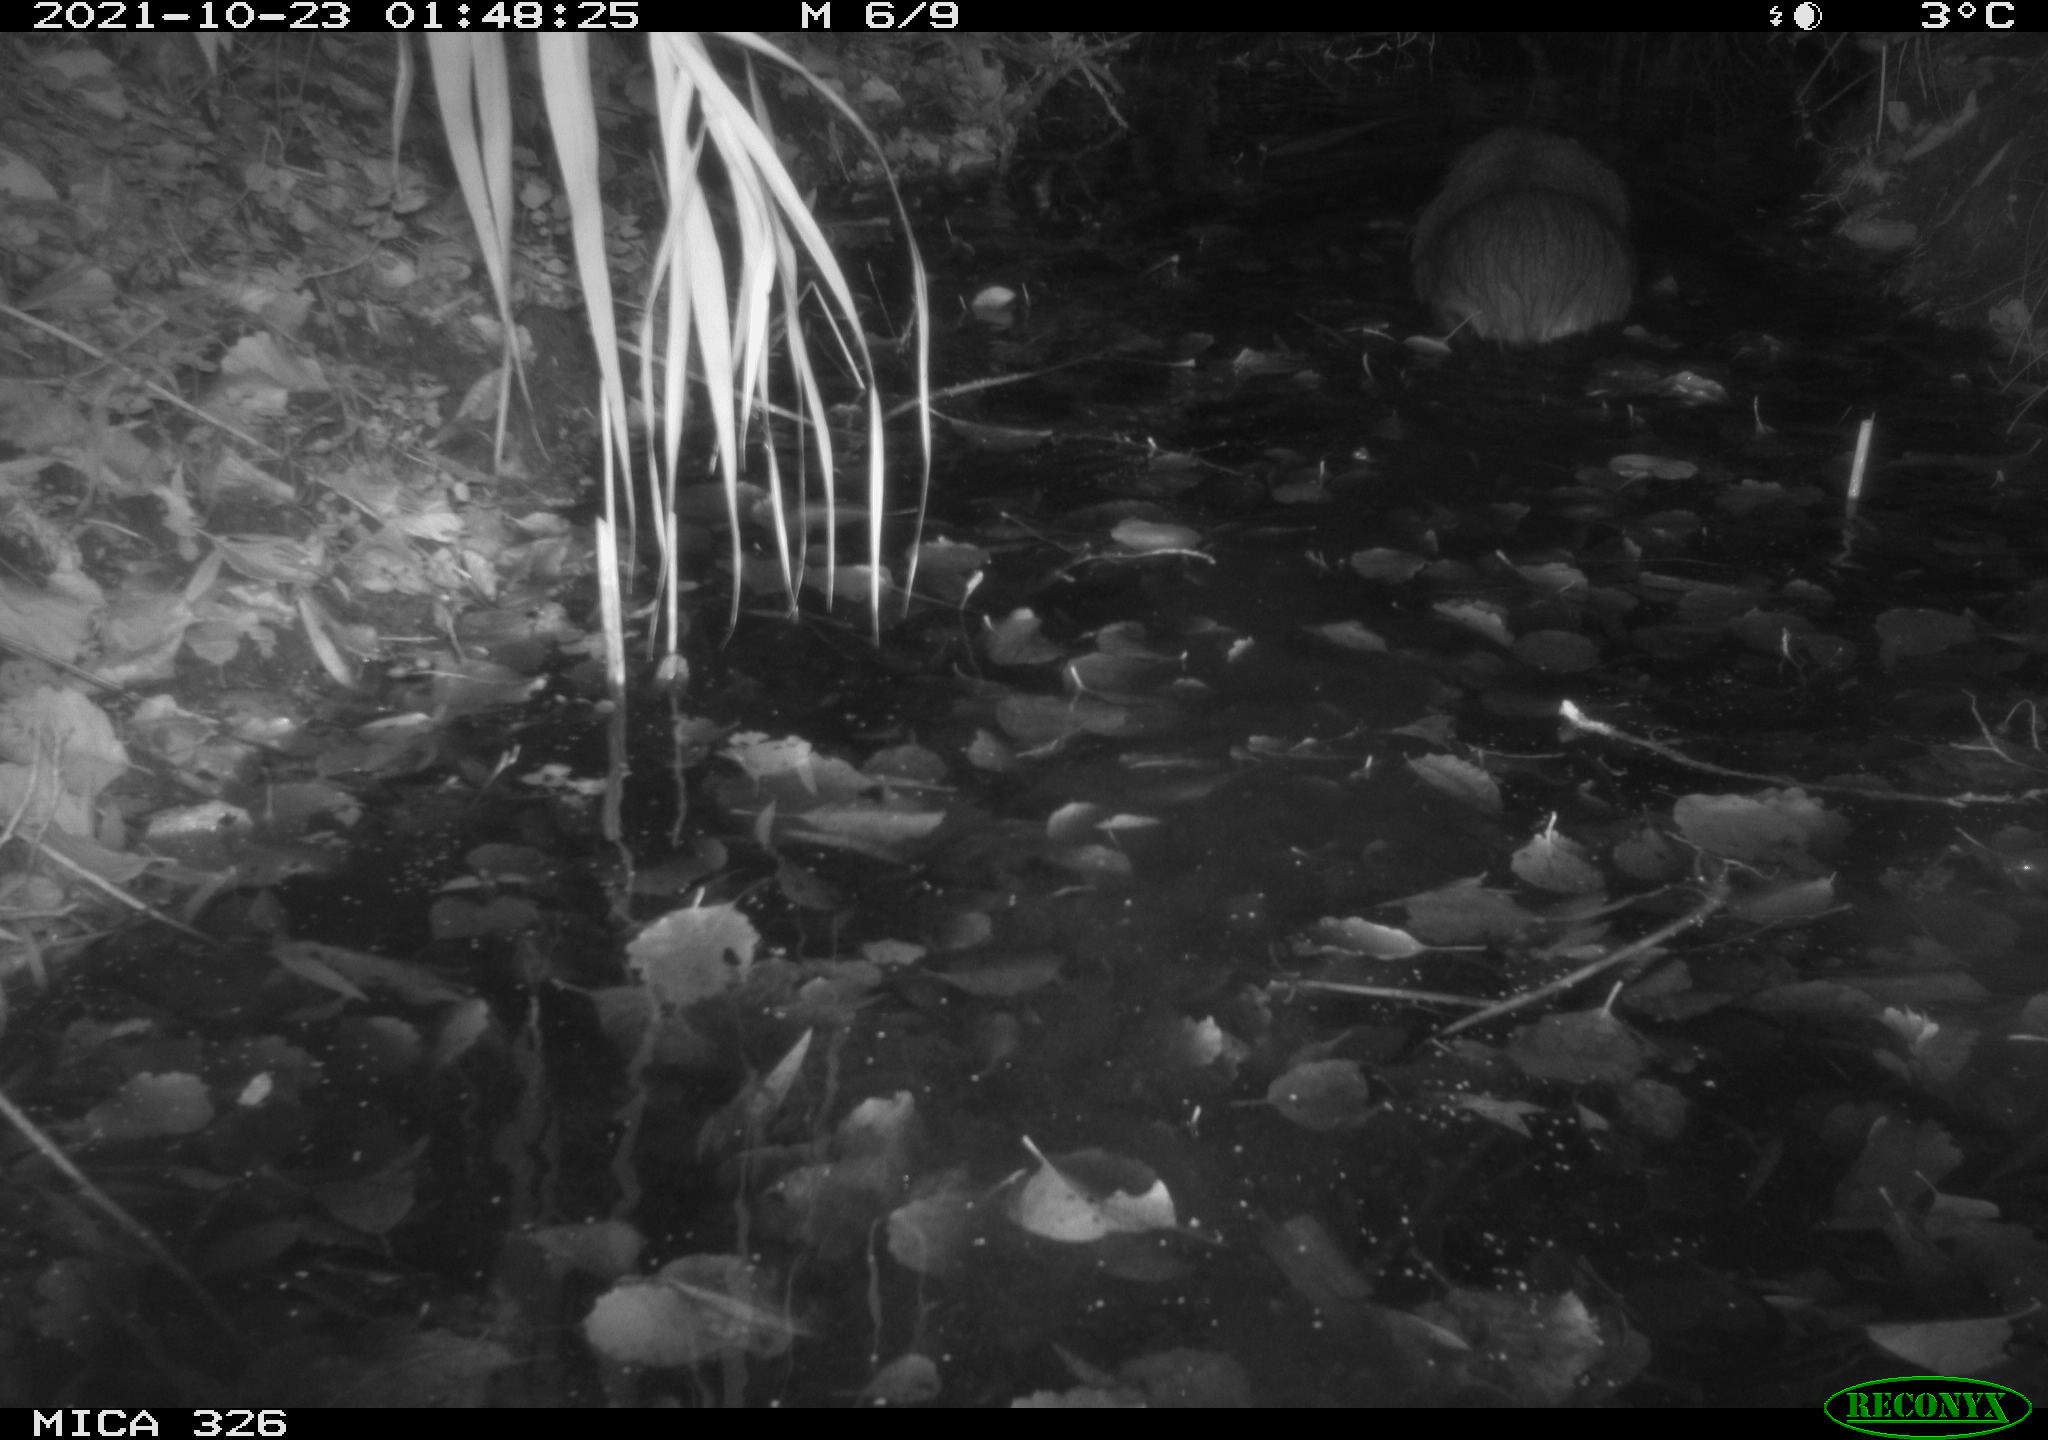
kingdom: Animalia
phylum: Chordata
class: Mammalia
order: Rodentia
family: Myocastoridae
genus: Myocastor
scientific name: Myocastor coypus
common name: Coypu
